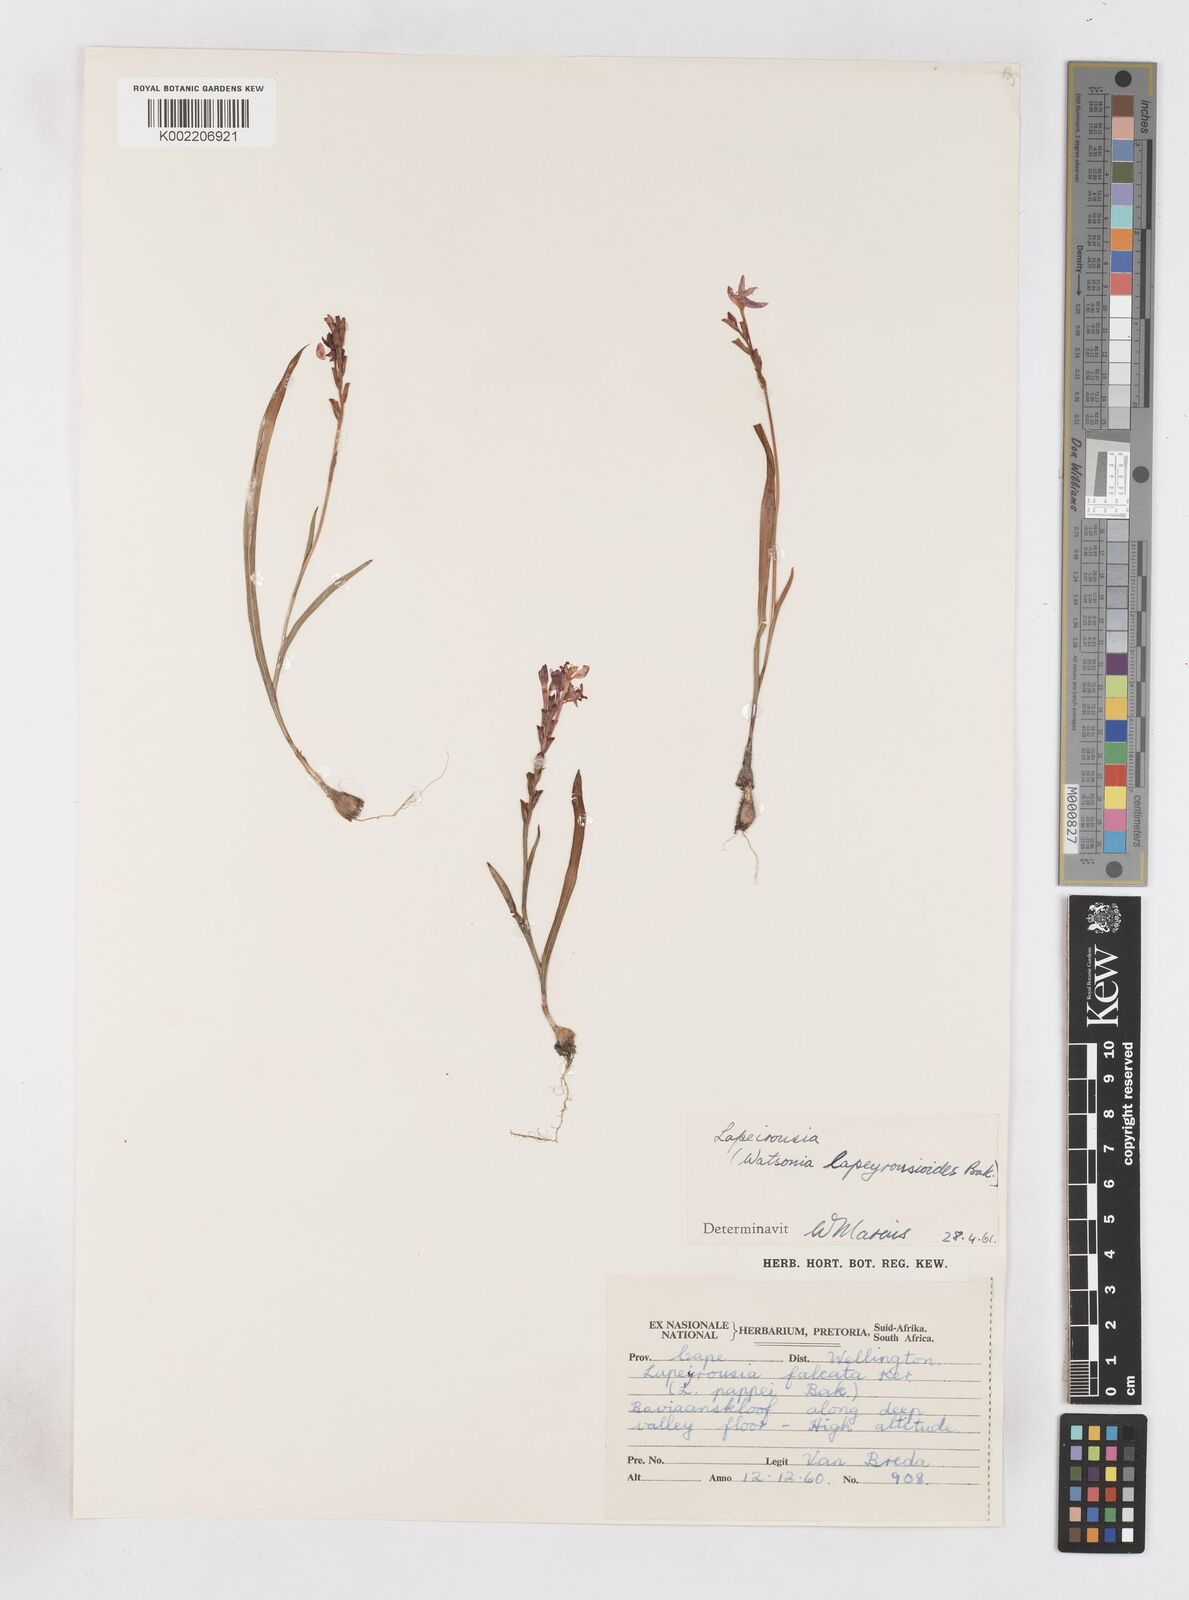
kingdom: Plantae
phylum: Tracheophyta
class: Liliopsida
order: Asparagales
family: Iridaceae
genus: Micranthus
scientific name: Micranthus
